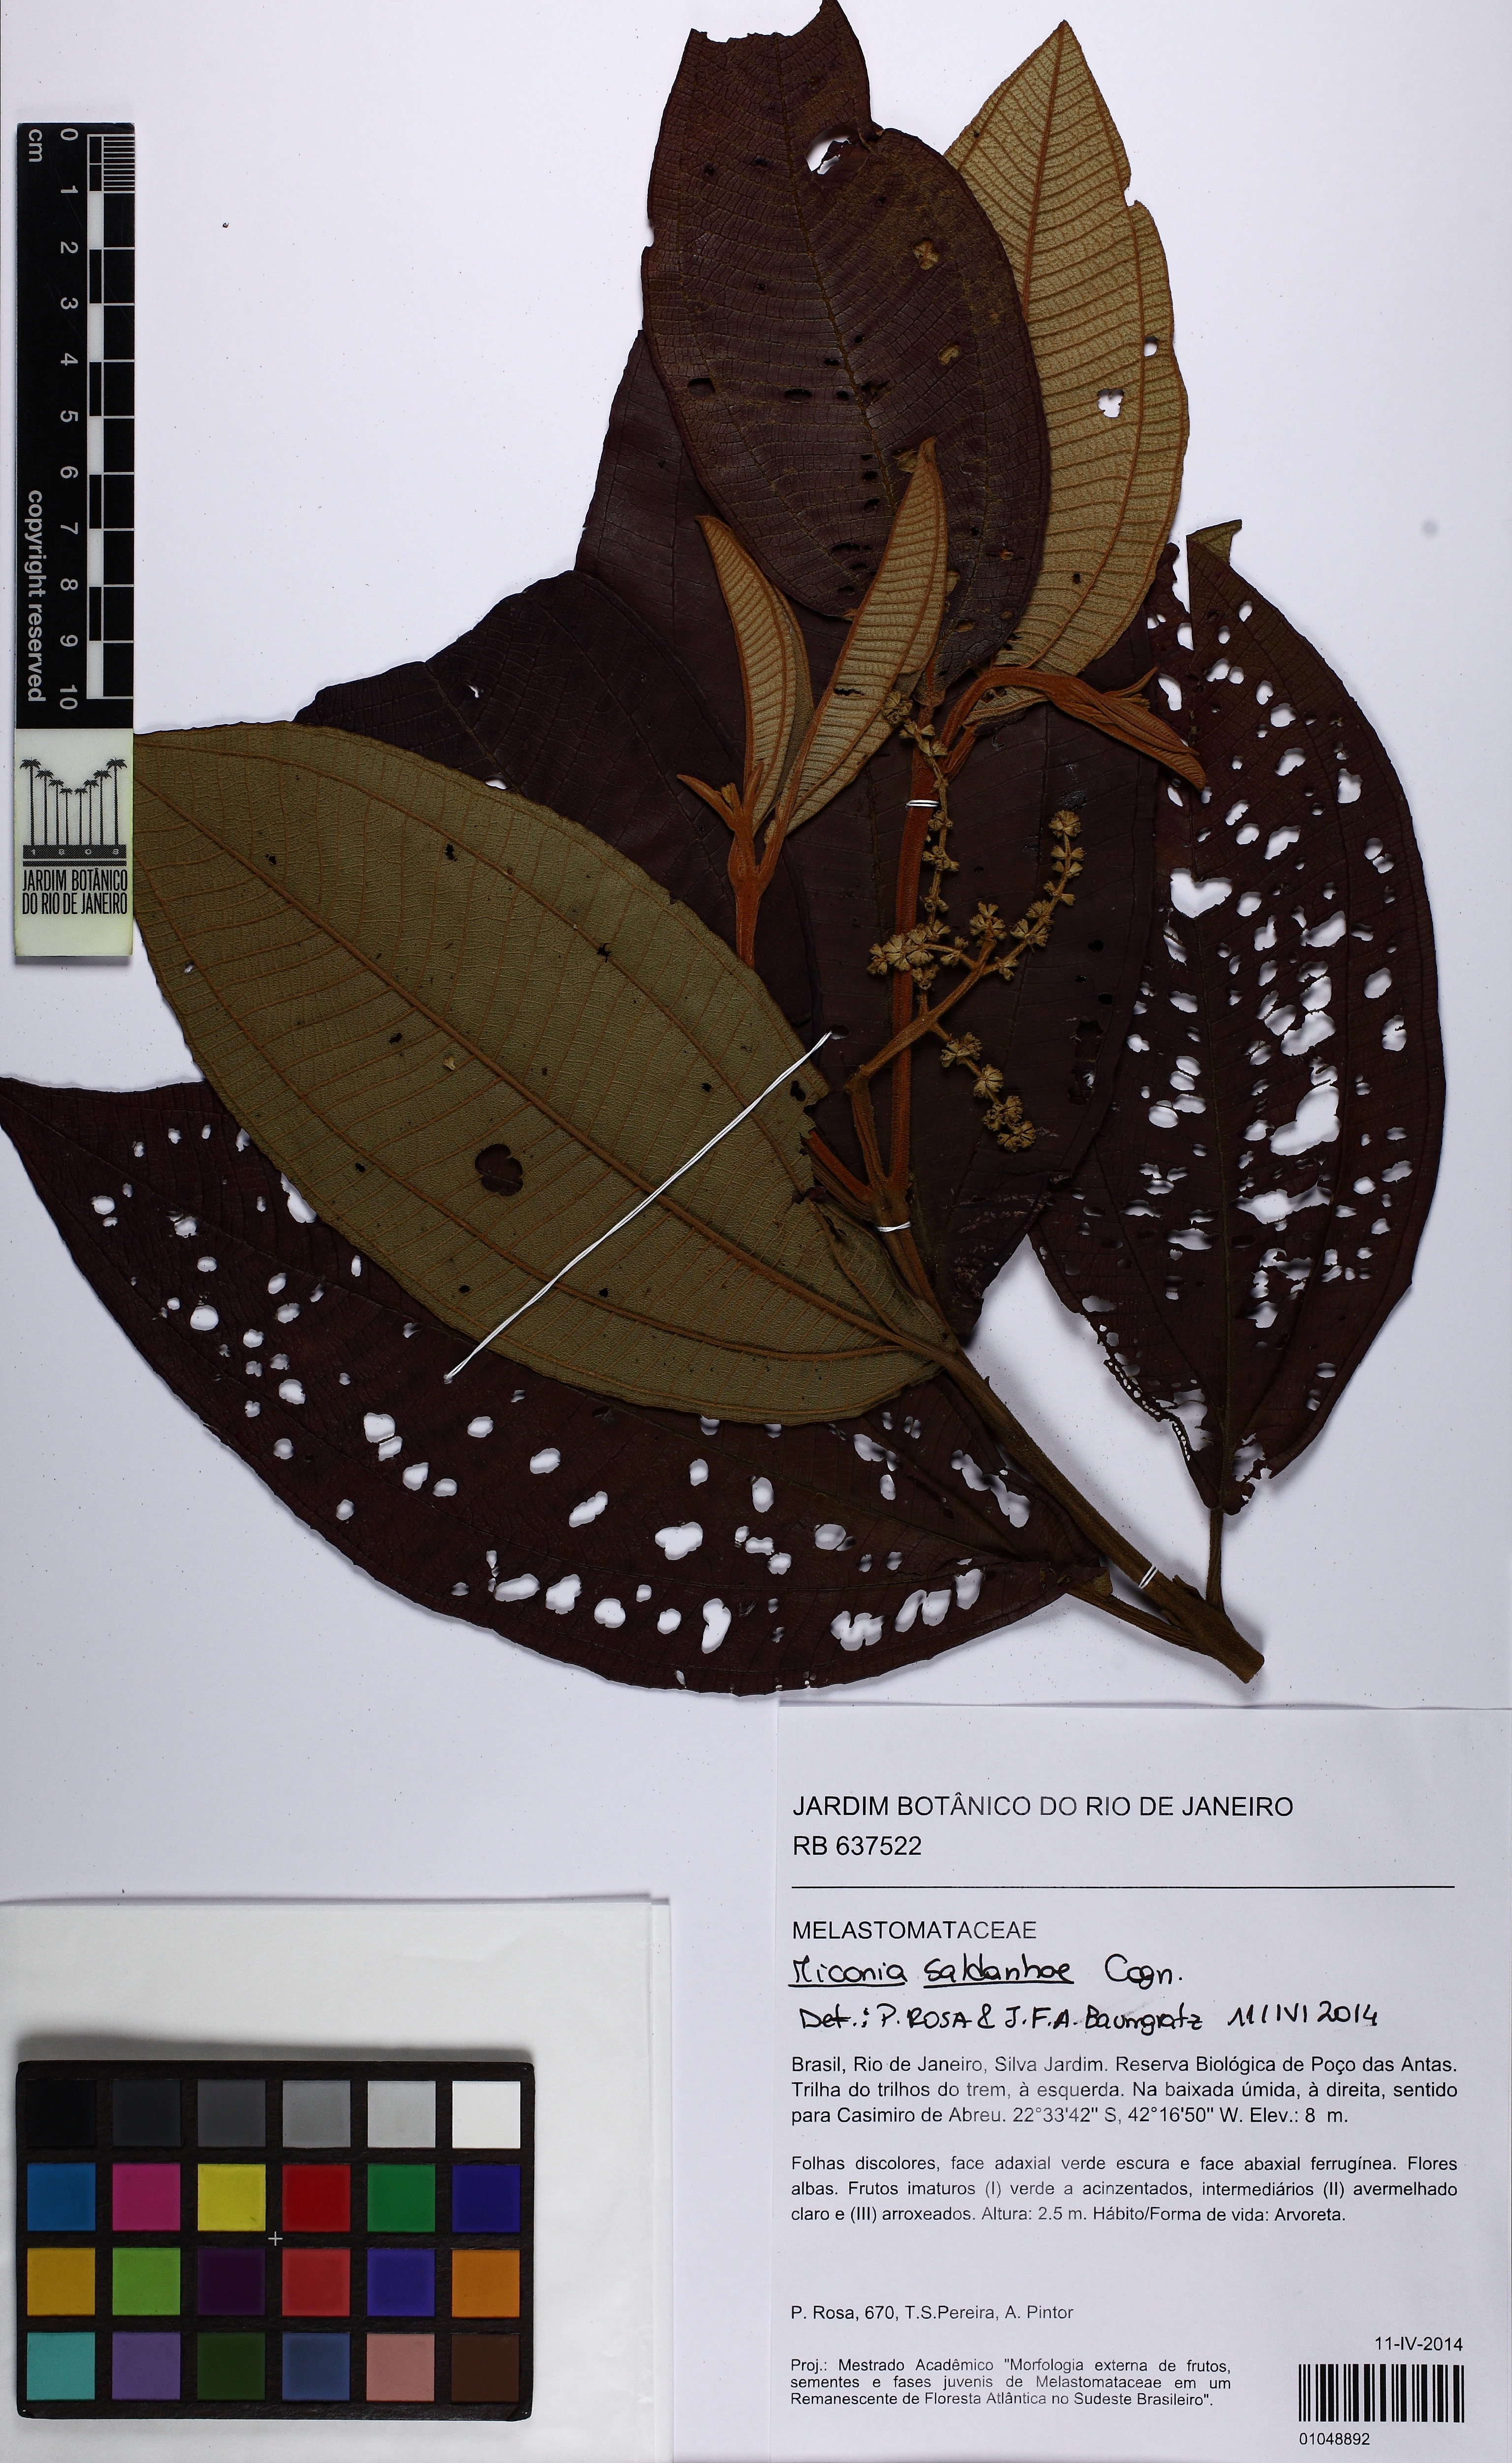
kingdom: Plantae
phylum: Tracheophyta
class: Magnoliopsida
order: Myrtales
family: Melastomataceae
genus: Miconia
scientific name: Miconia fasciculata
